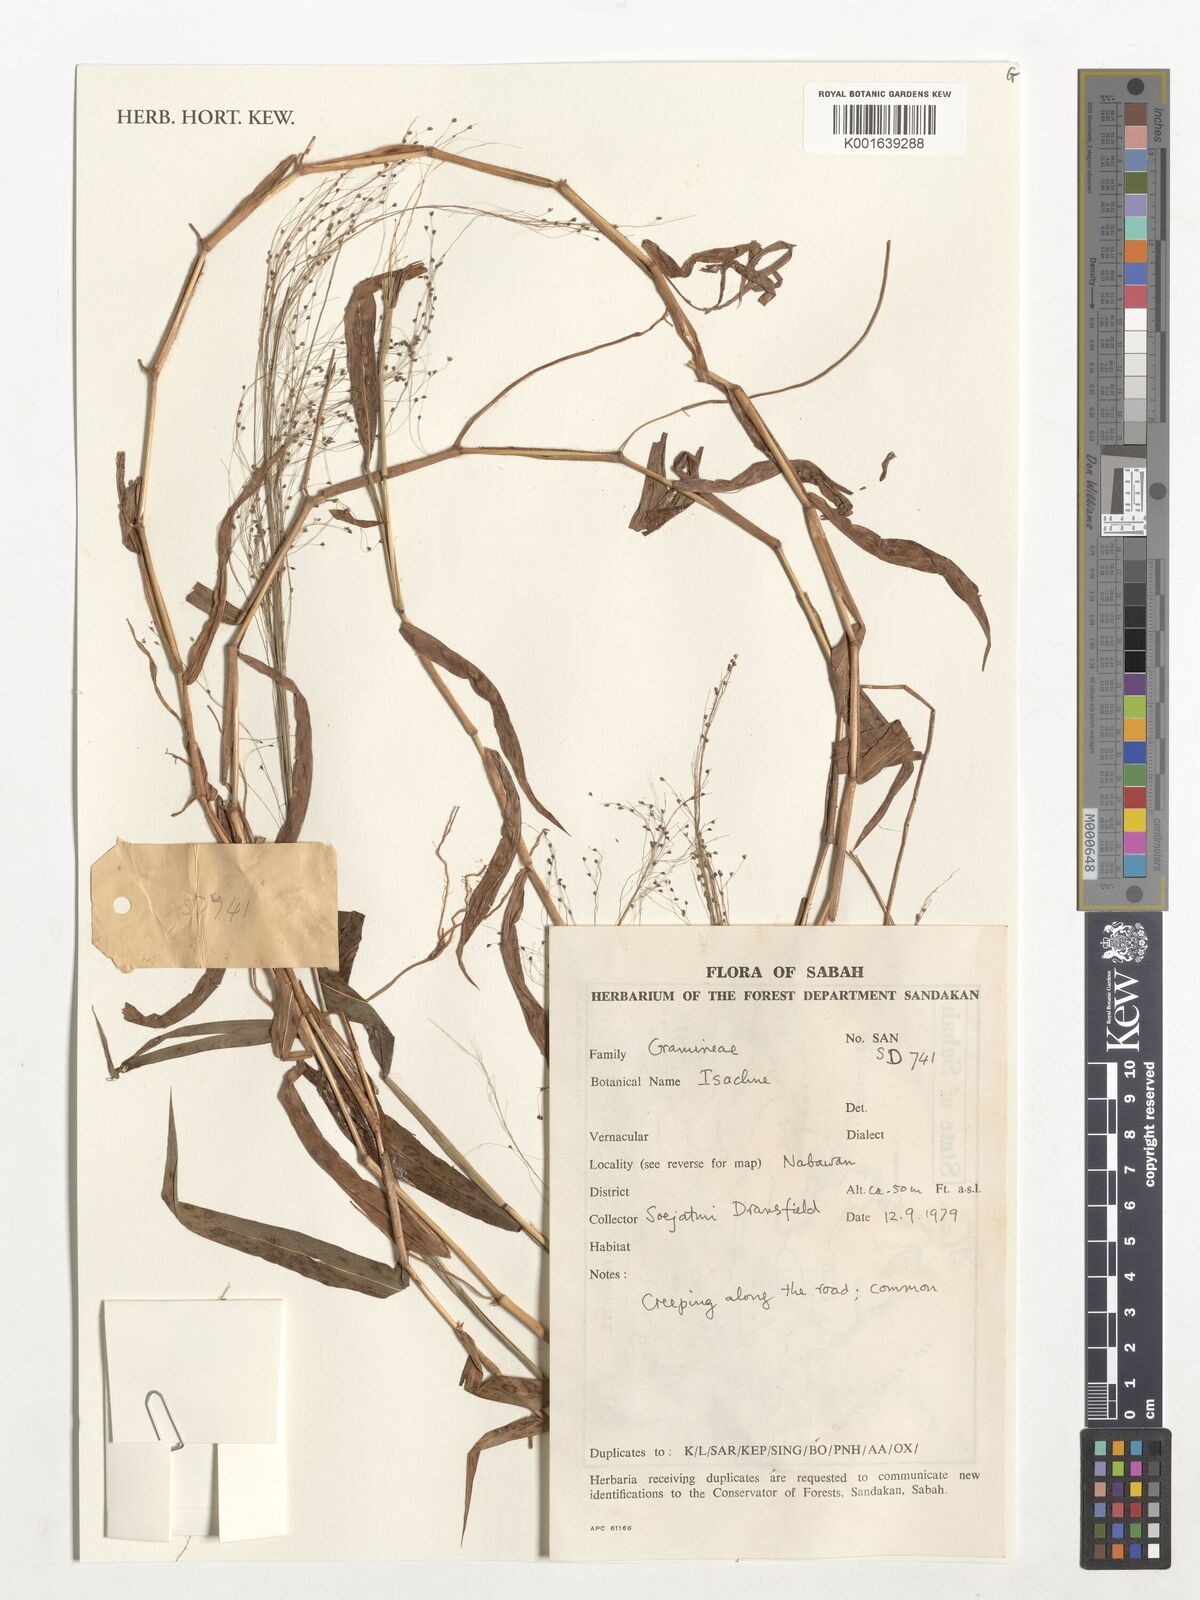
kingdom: Plantae
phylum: Tracheophyta
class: Liliopsida
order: Poales
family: Poaceae
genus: Isachne
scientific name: Isachne
